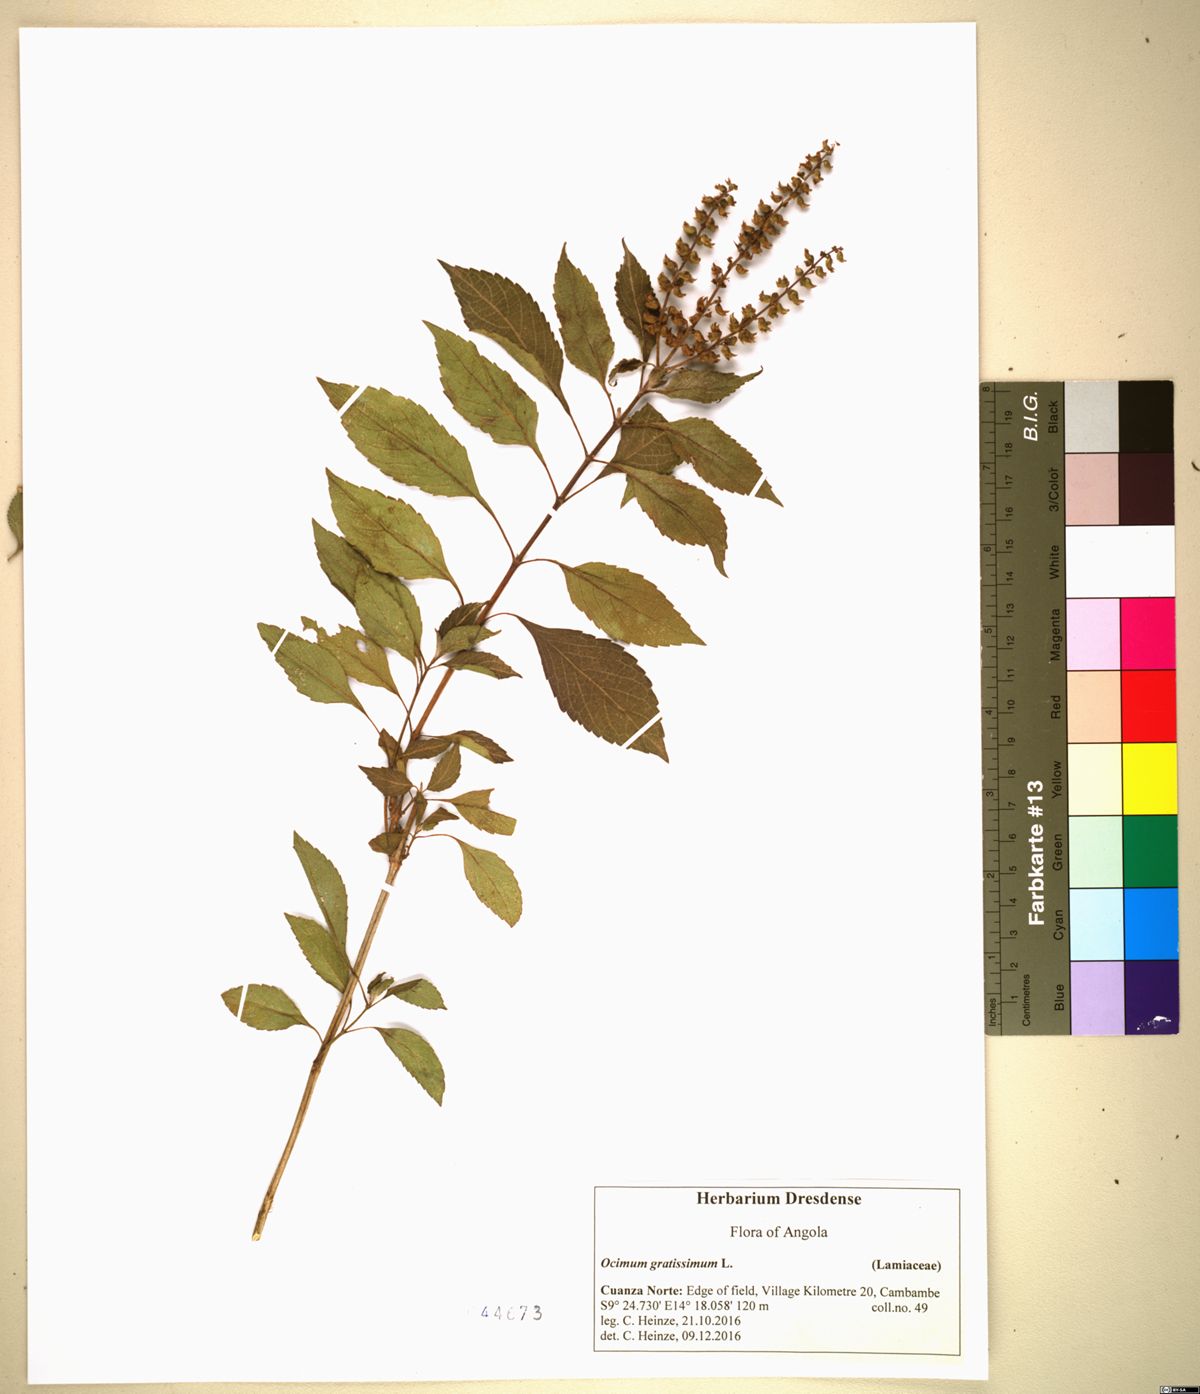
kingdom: Plantae
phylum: Tracheophyta
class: Magnoliopsida
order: Lamiales
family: Lamiaceae
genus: Ocimum
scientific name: Ocimum gratissimum
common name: African basil
